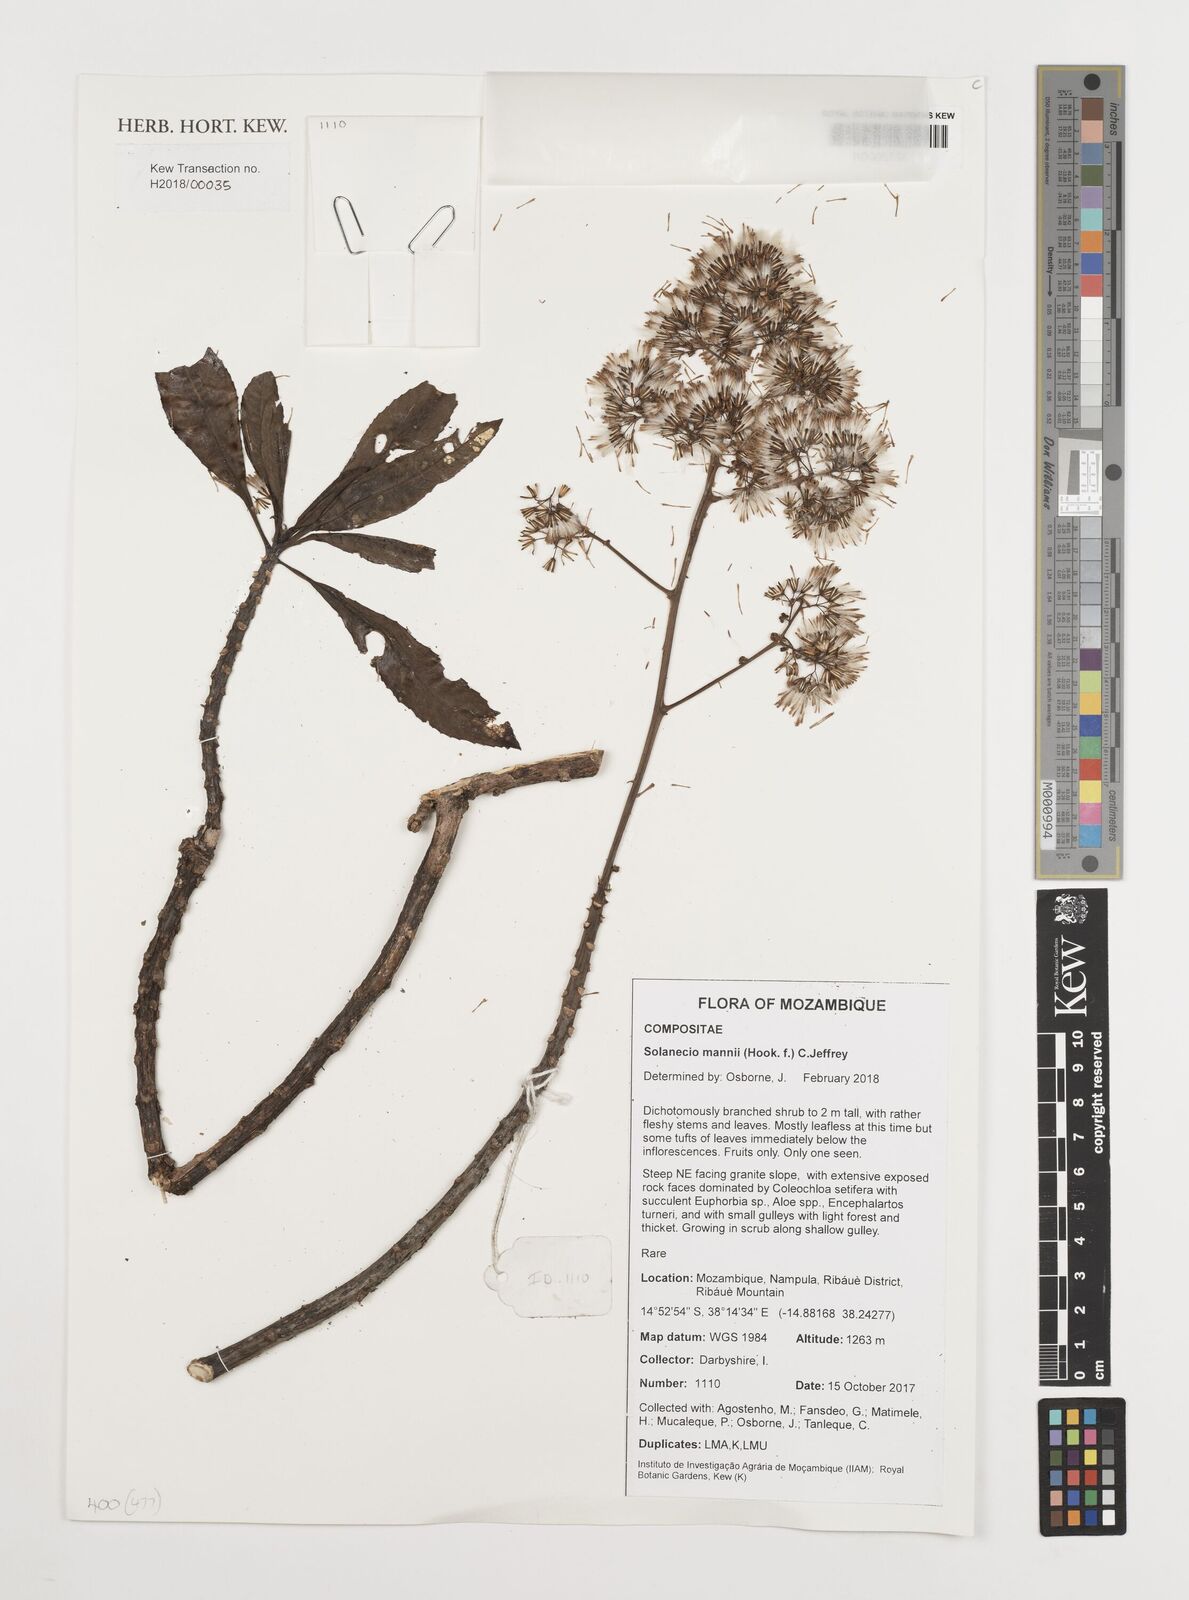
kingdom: Plantae
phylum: Tracheophyta
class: Magnoliopsida
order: Asterales
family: Asteraceae
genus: Solanecio
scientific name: Solanecio mannii
